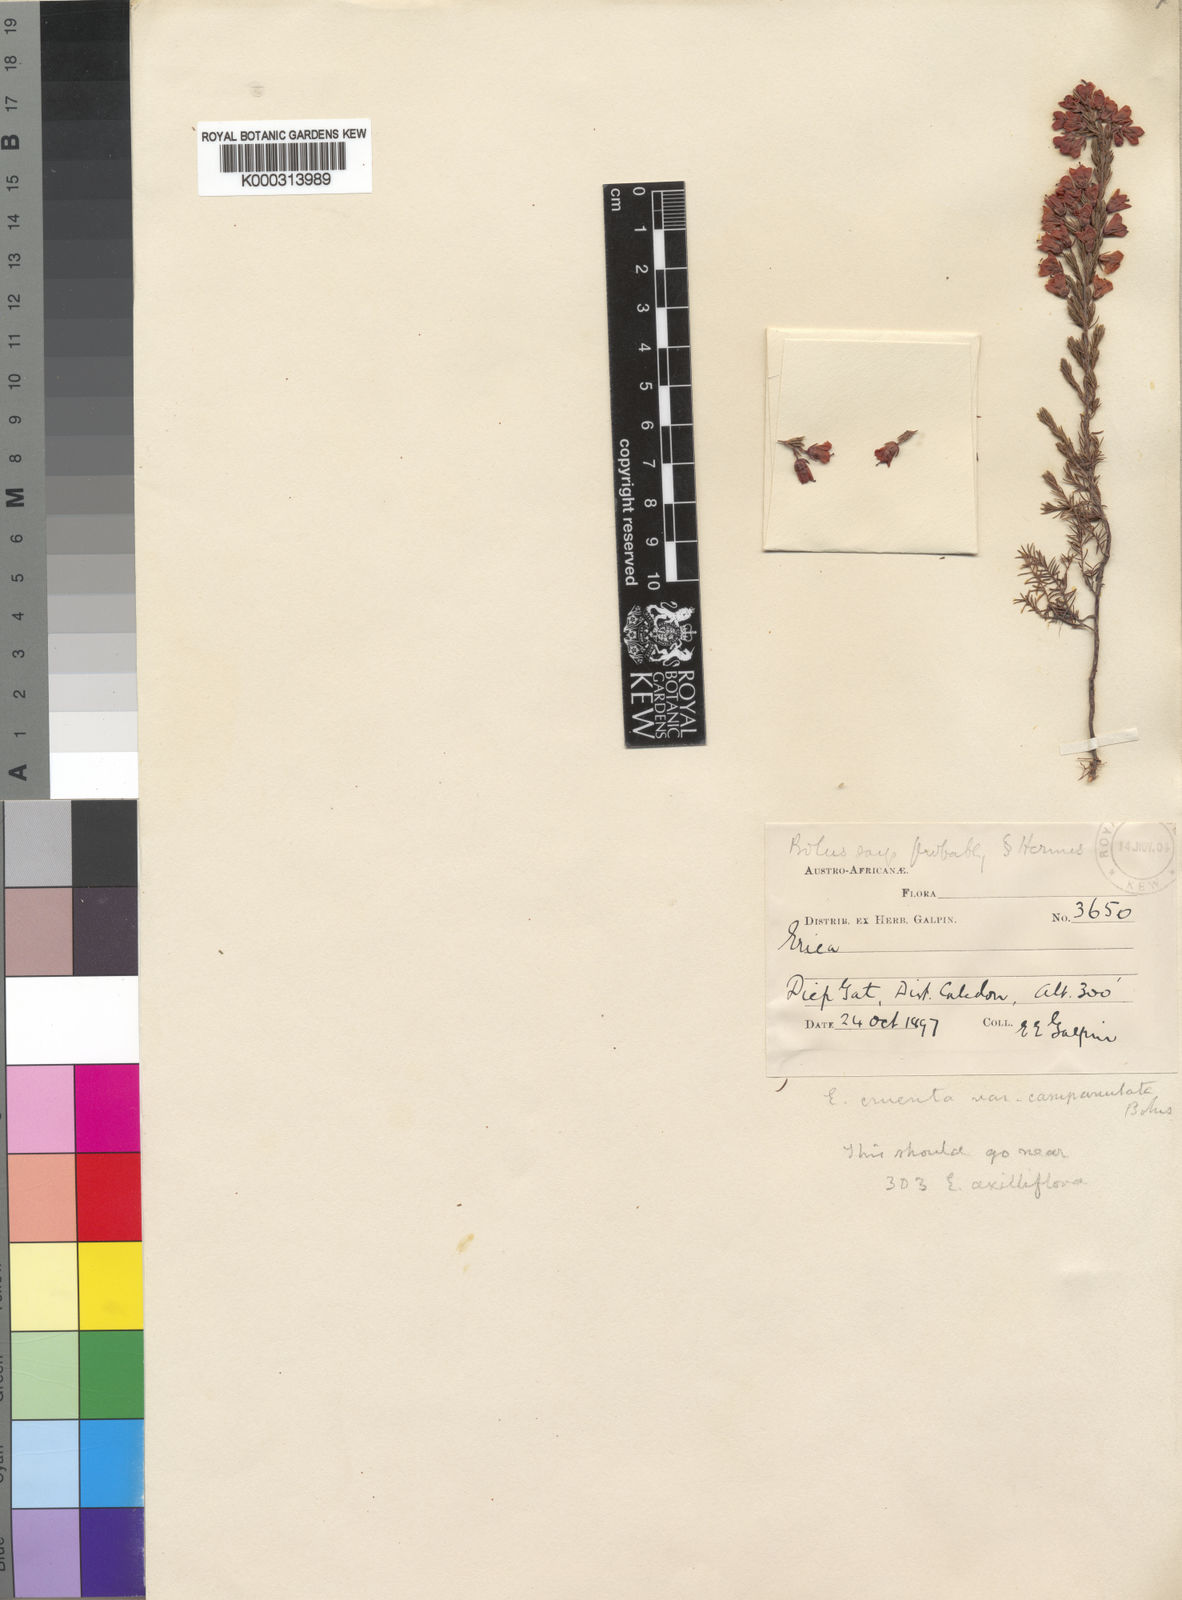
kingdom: Plantae
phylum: Tracheophyta
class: Magnoliopsida
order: Ericales
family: Ericaceae
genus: Erica
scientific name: Erica
